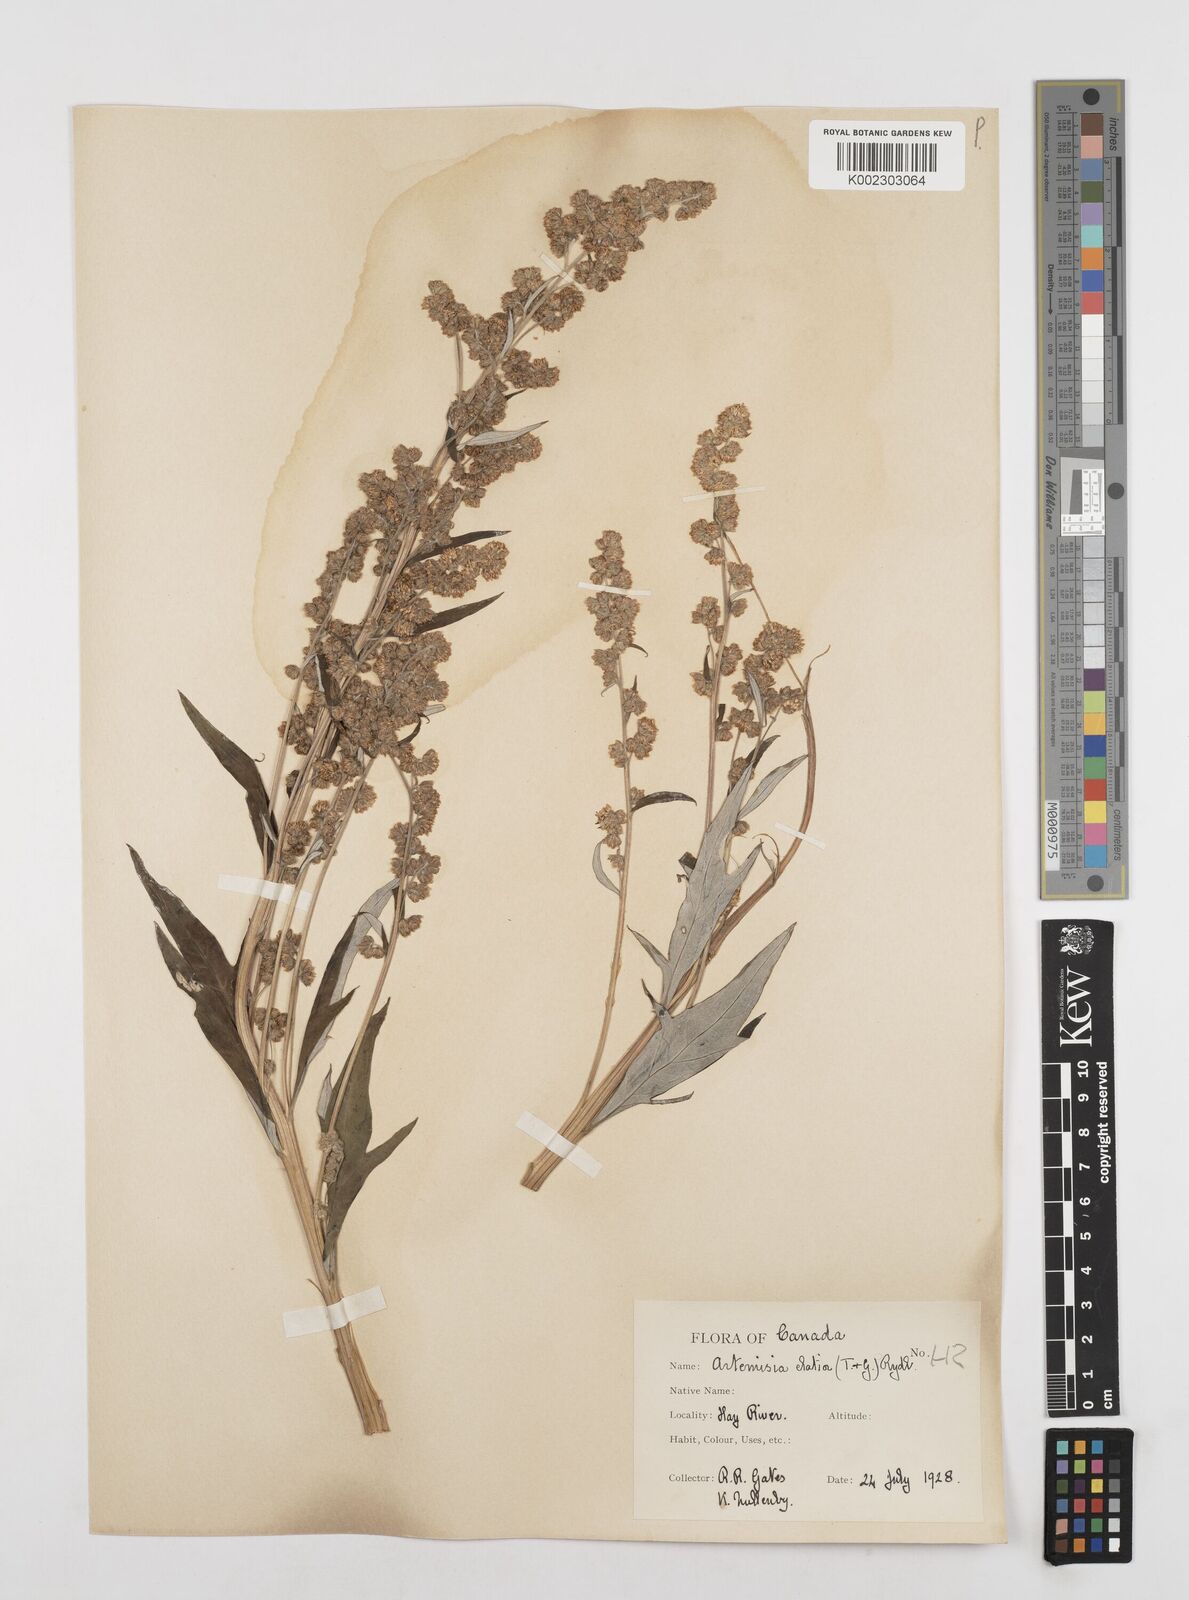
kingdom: Plantae
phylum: Tracheophyta
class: Magnoliopsida
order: Asterales
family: Asteraceae
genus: Artemisia
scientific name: Artemisia tilesii
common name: Aleutian mugwort
